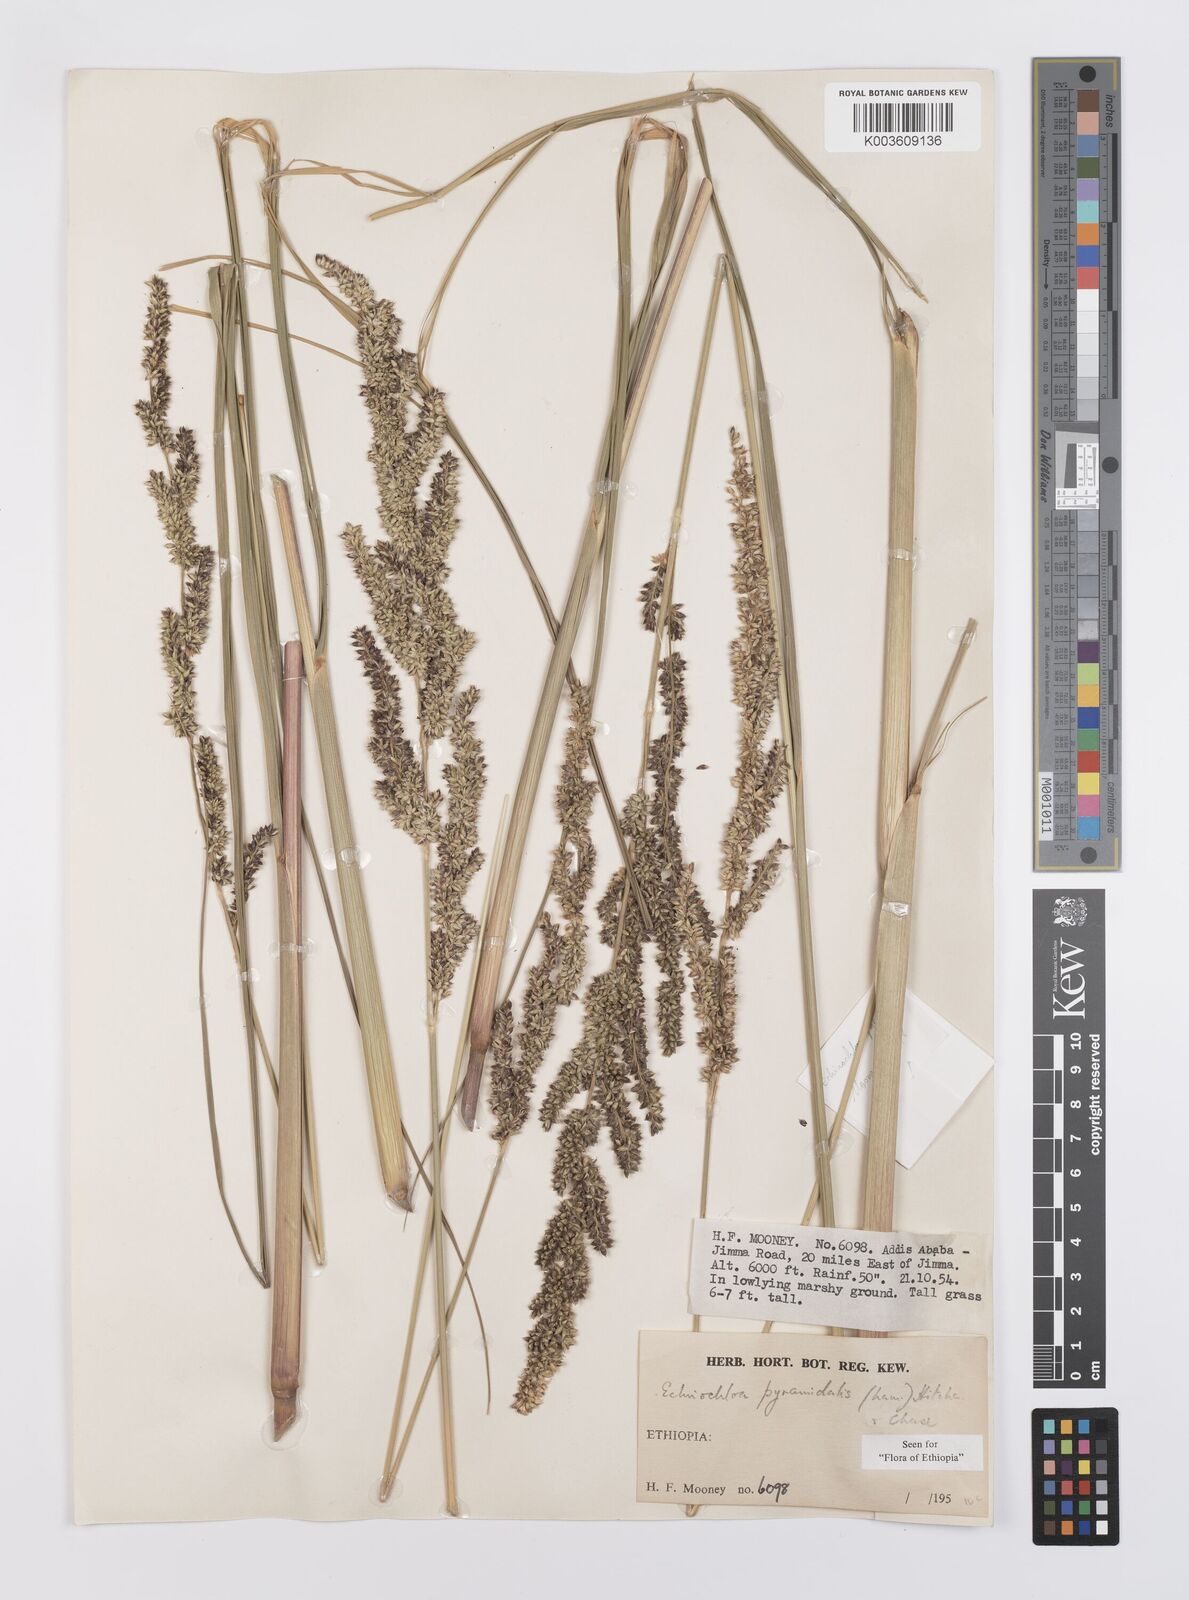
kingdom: Plantae
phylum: Tracheophyta
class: Liliopsida
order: Poales
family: Poaceae
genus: Echinochloa
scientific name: Echinochloa pyramidalis
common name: Antelope grass
